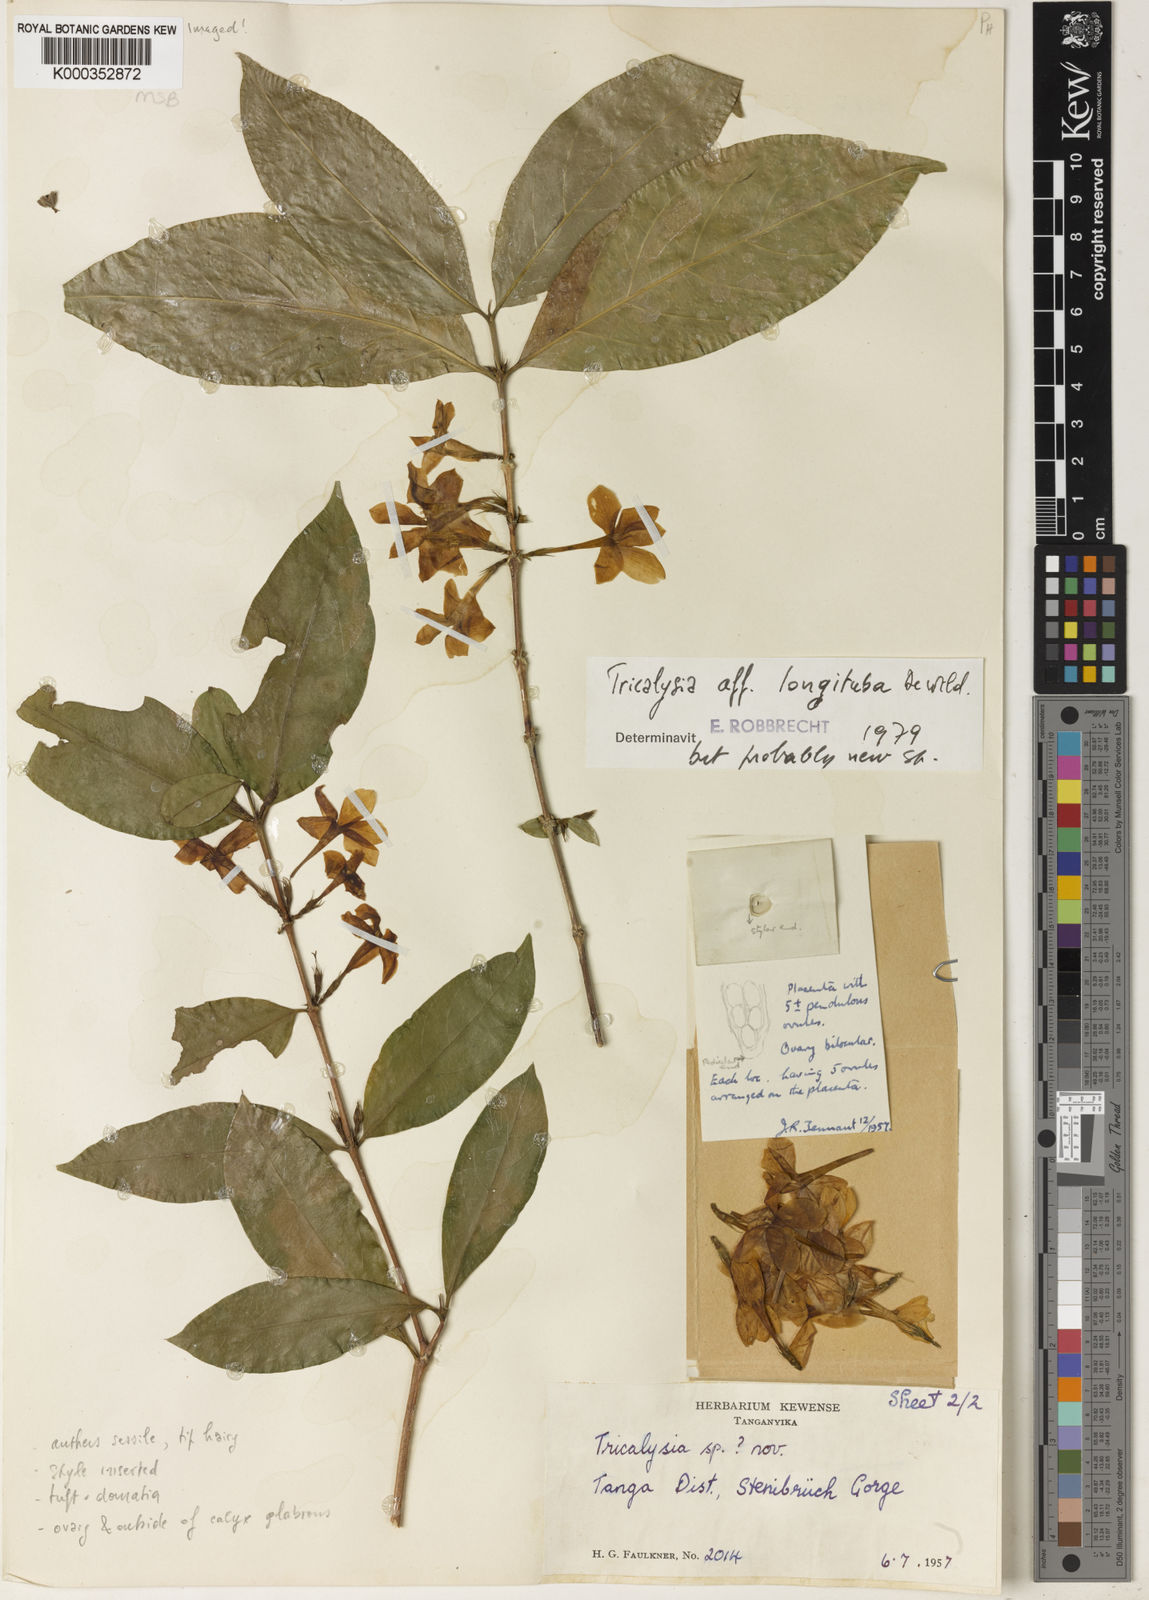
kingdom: Plantae
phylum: Tracheophyta
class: Magnoliopsida
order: Gentianales
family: Rubiaceae
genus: Tricalysia
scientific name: Tricalysia elegans
